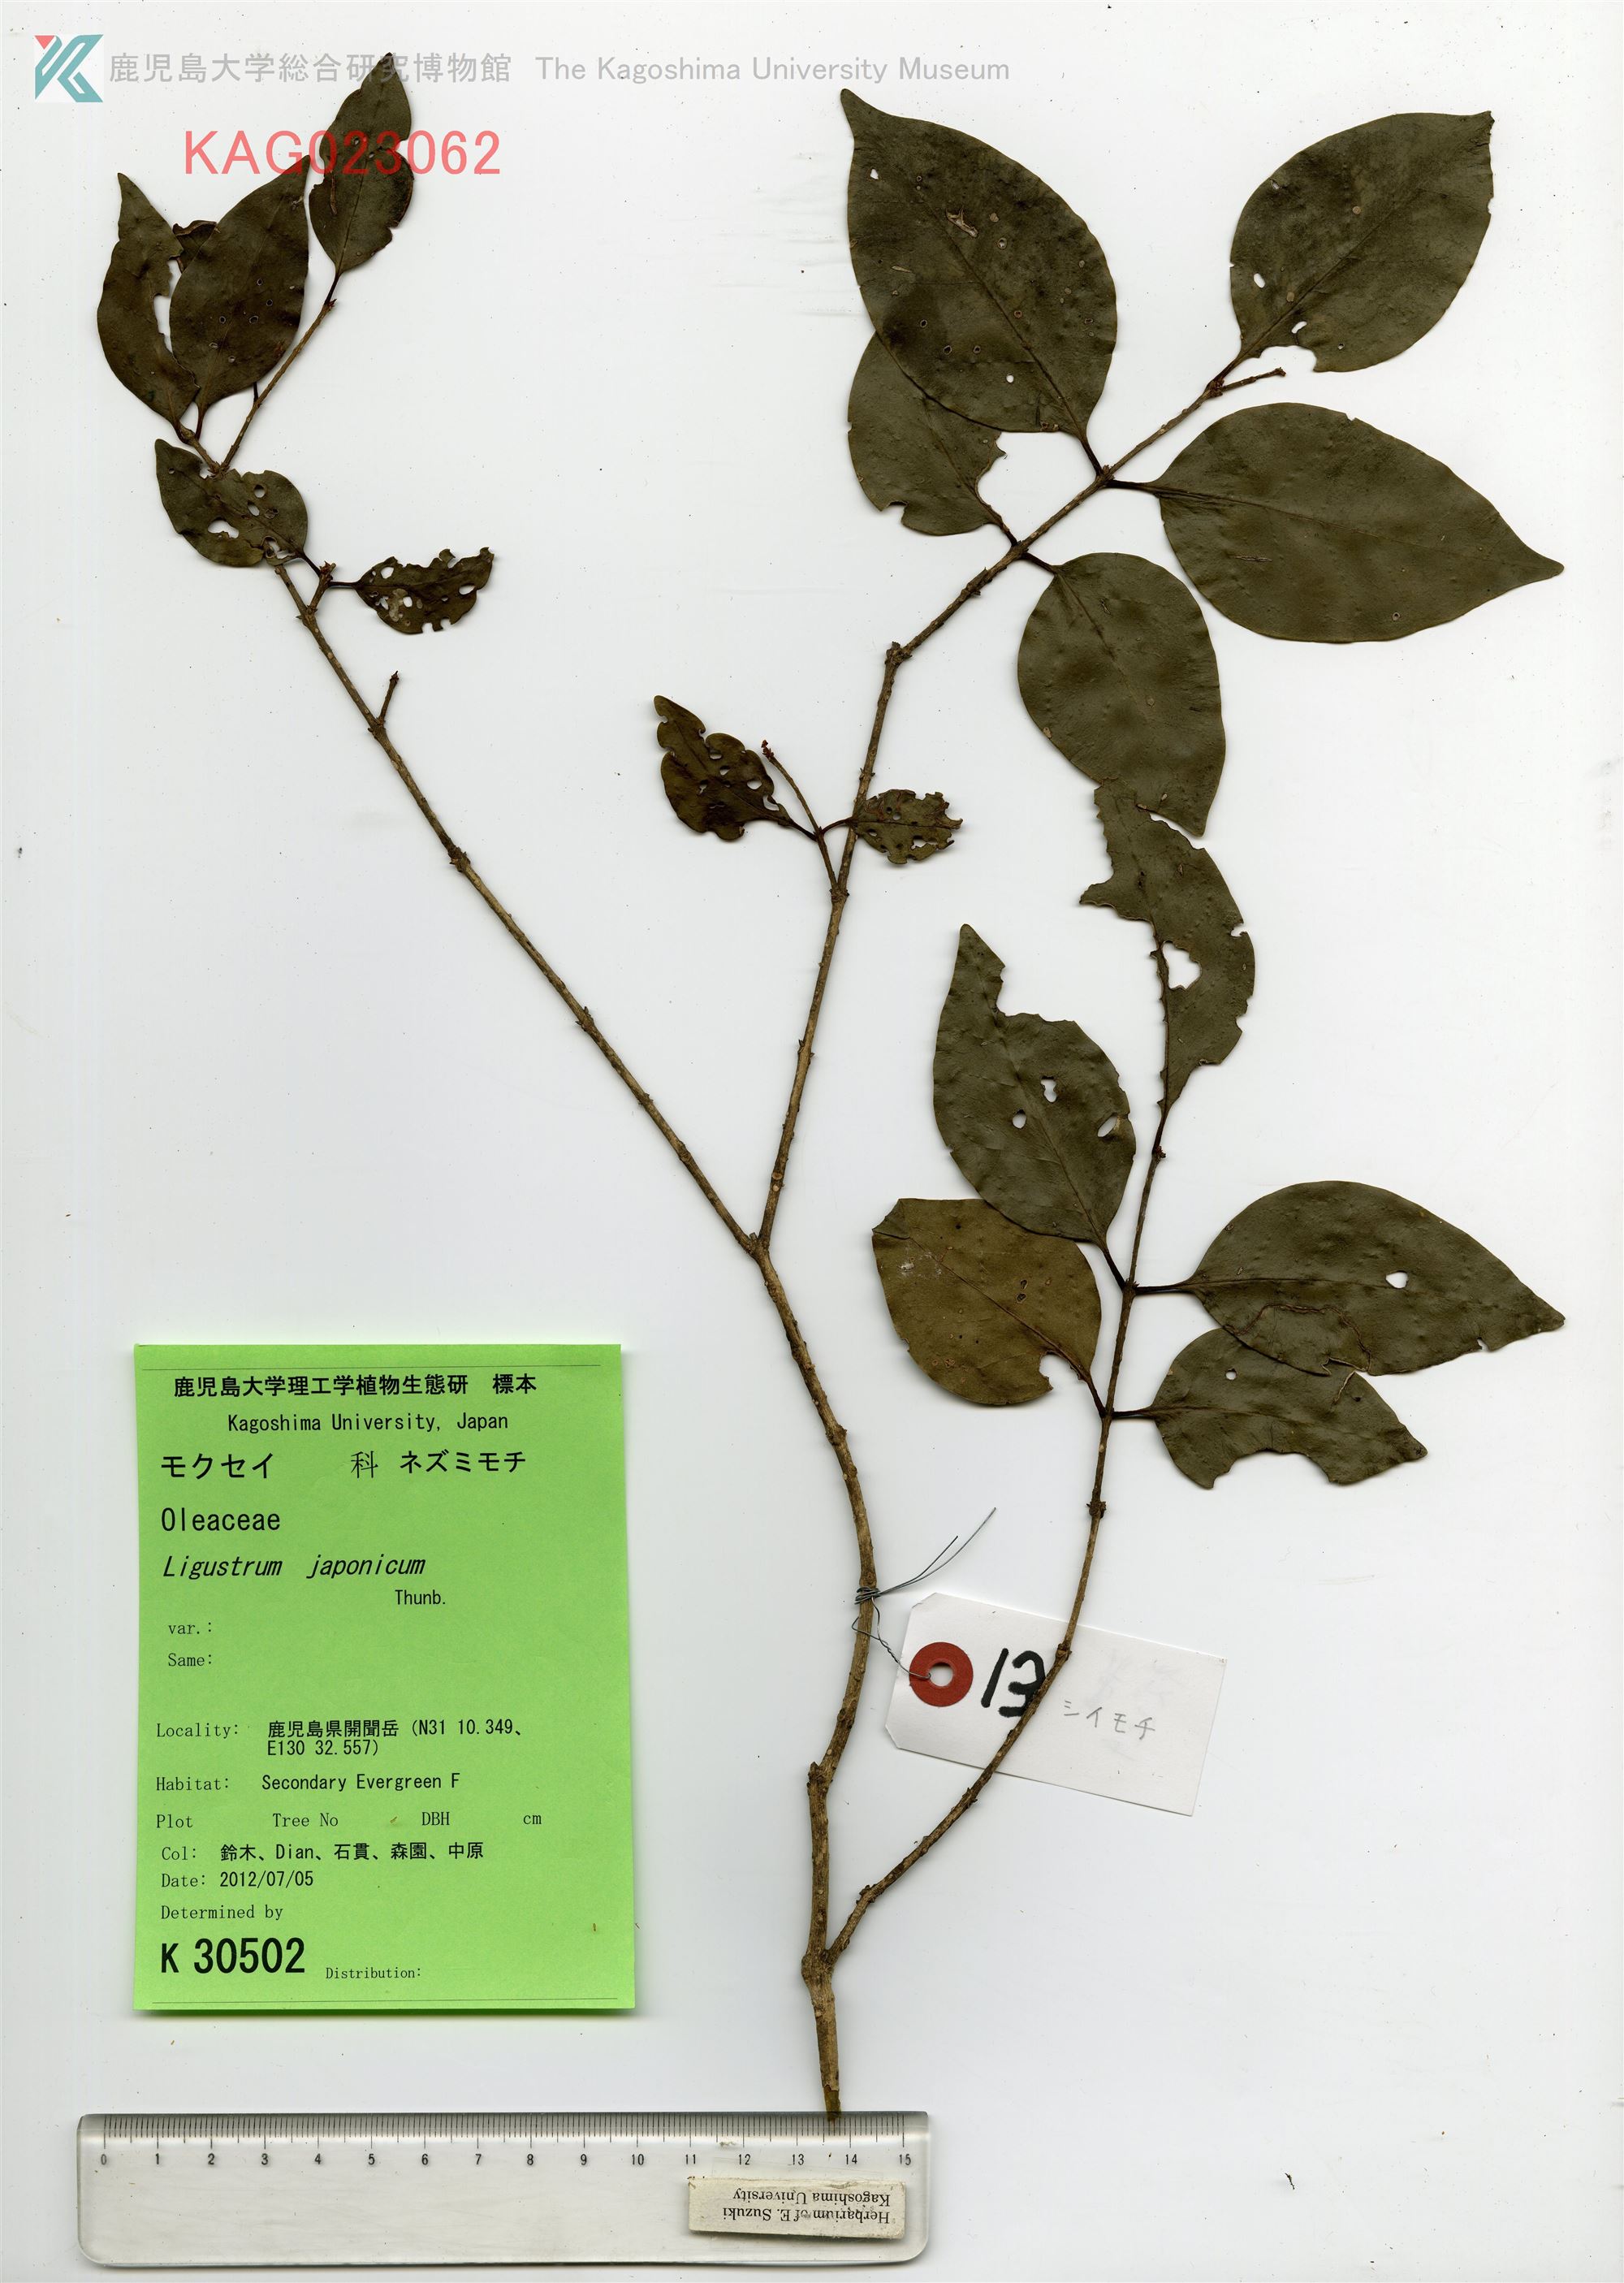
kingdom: Plantae
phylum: Tracheophyta
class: Magnoliopsida
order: Lamiales
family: Oleaceae
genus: Ligustrum
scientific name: Ligustrum japonicum
